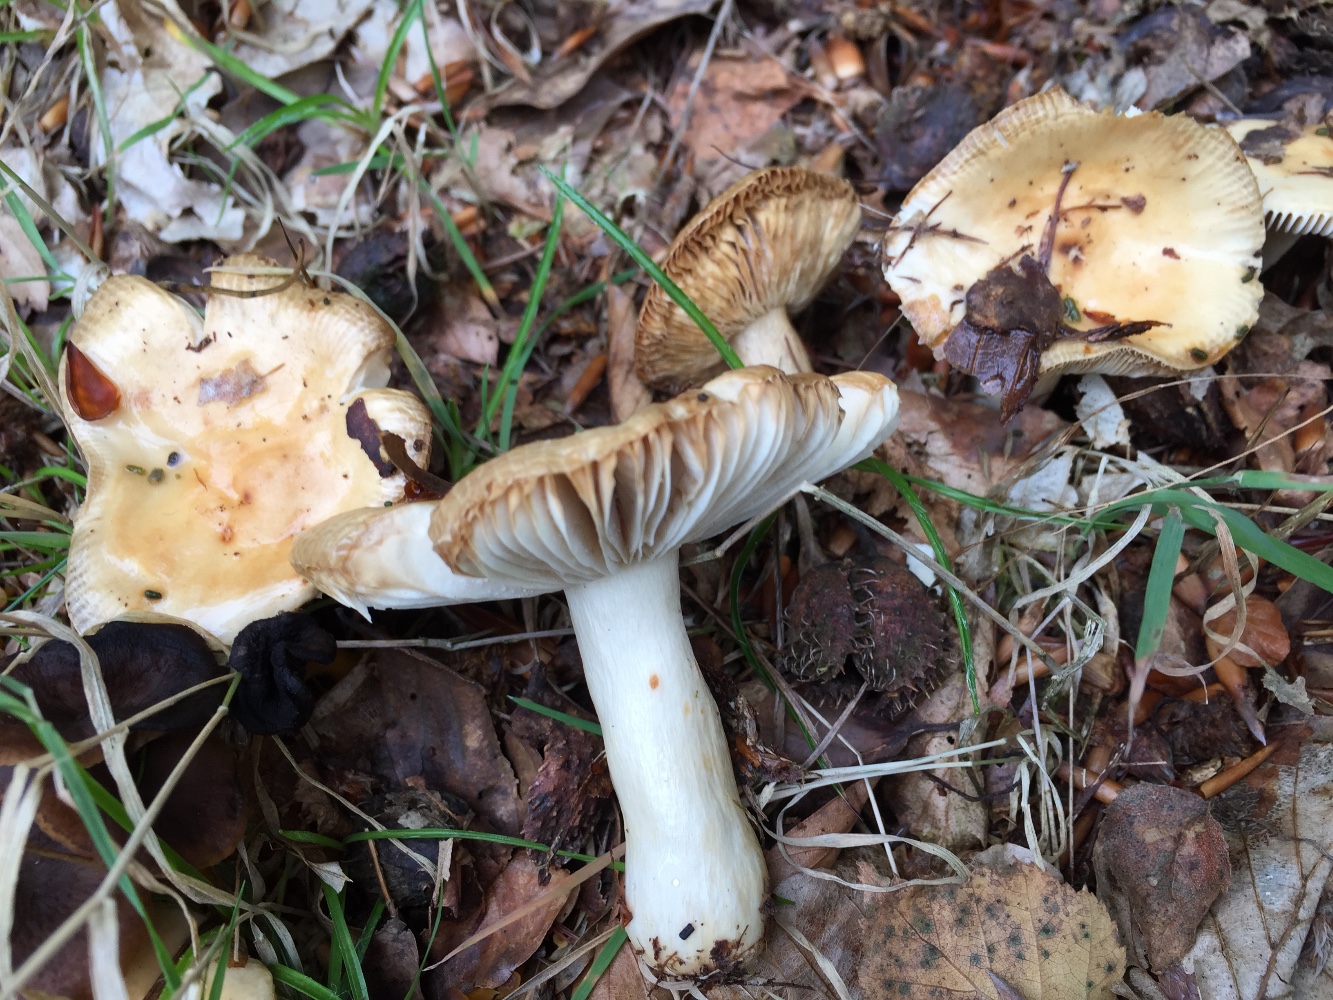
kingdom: Fungi
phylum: Basidiomycota
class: Agaricomycetes
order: Russulales
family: Russulaceae
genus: Russula
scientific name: Russula fellea
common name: galde-skørhat
